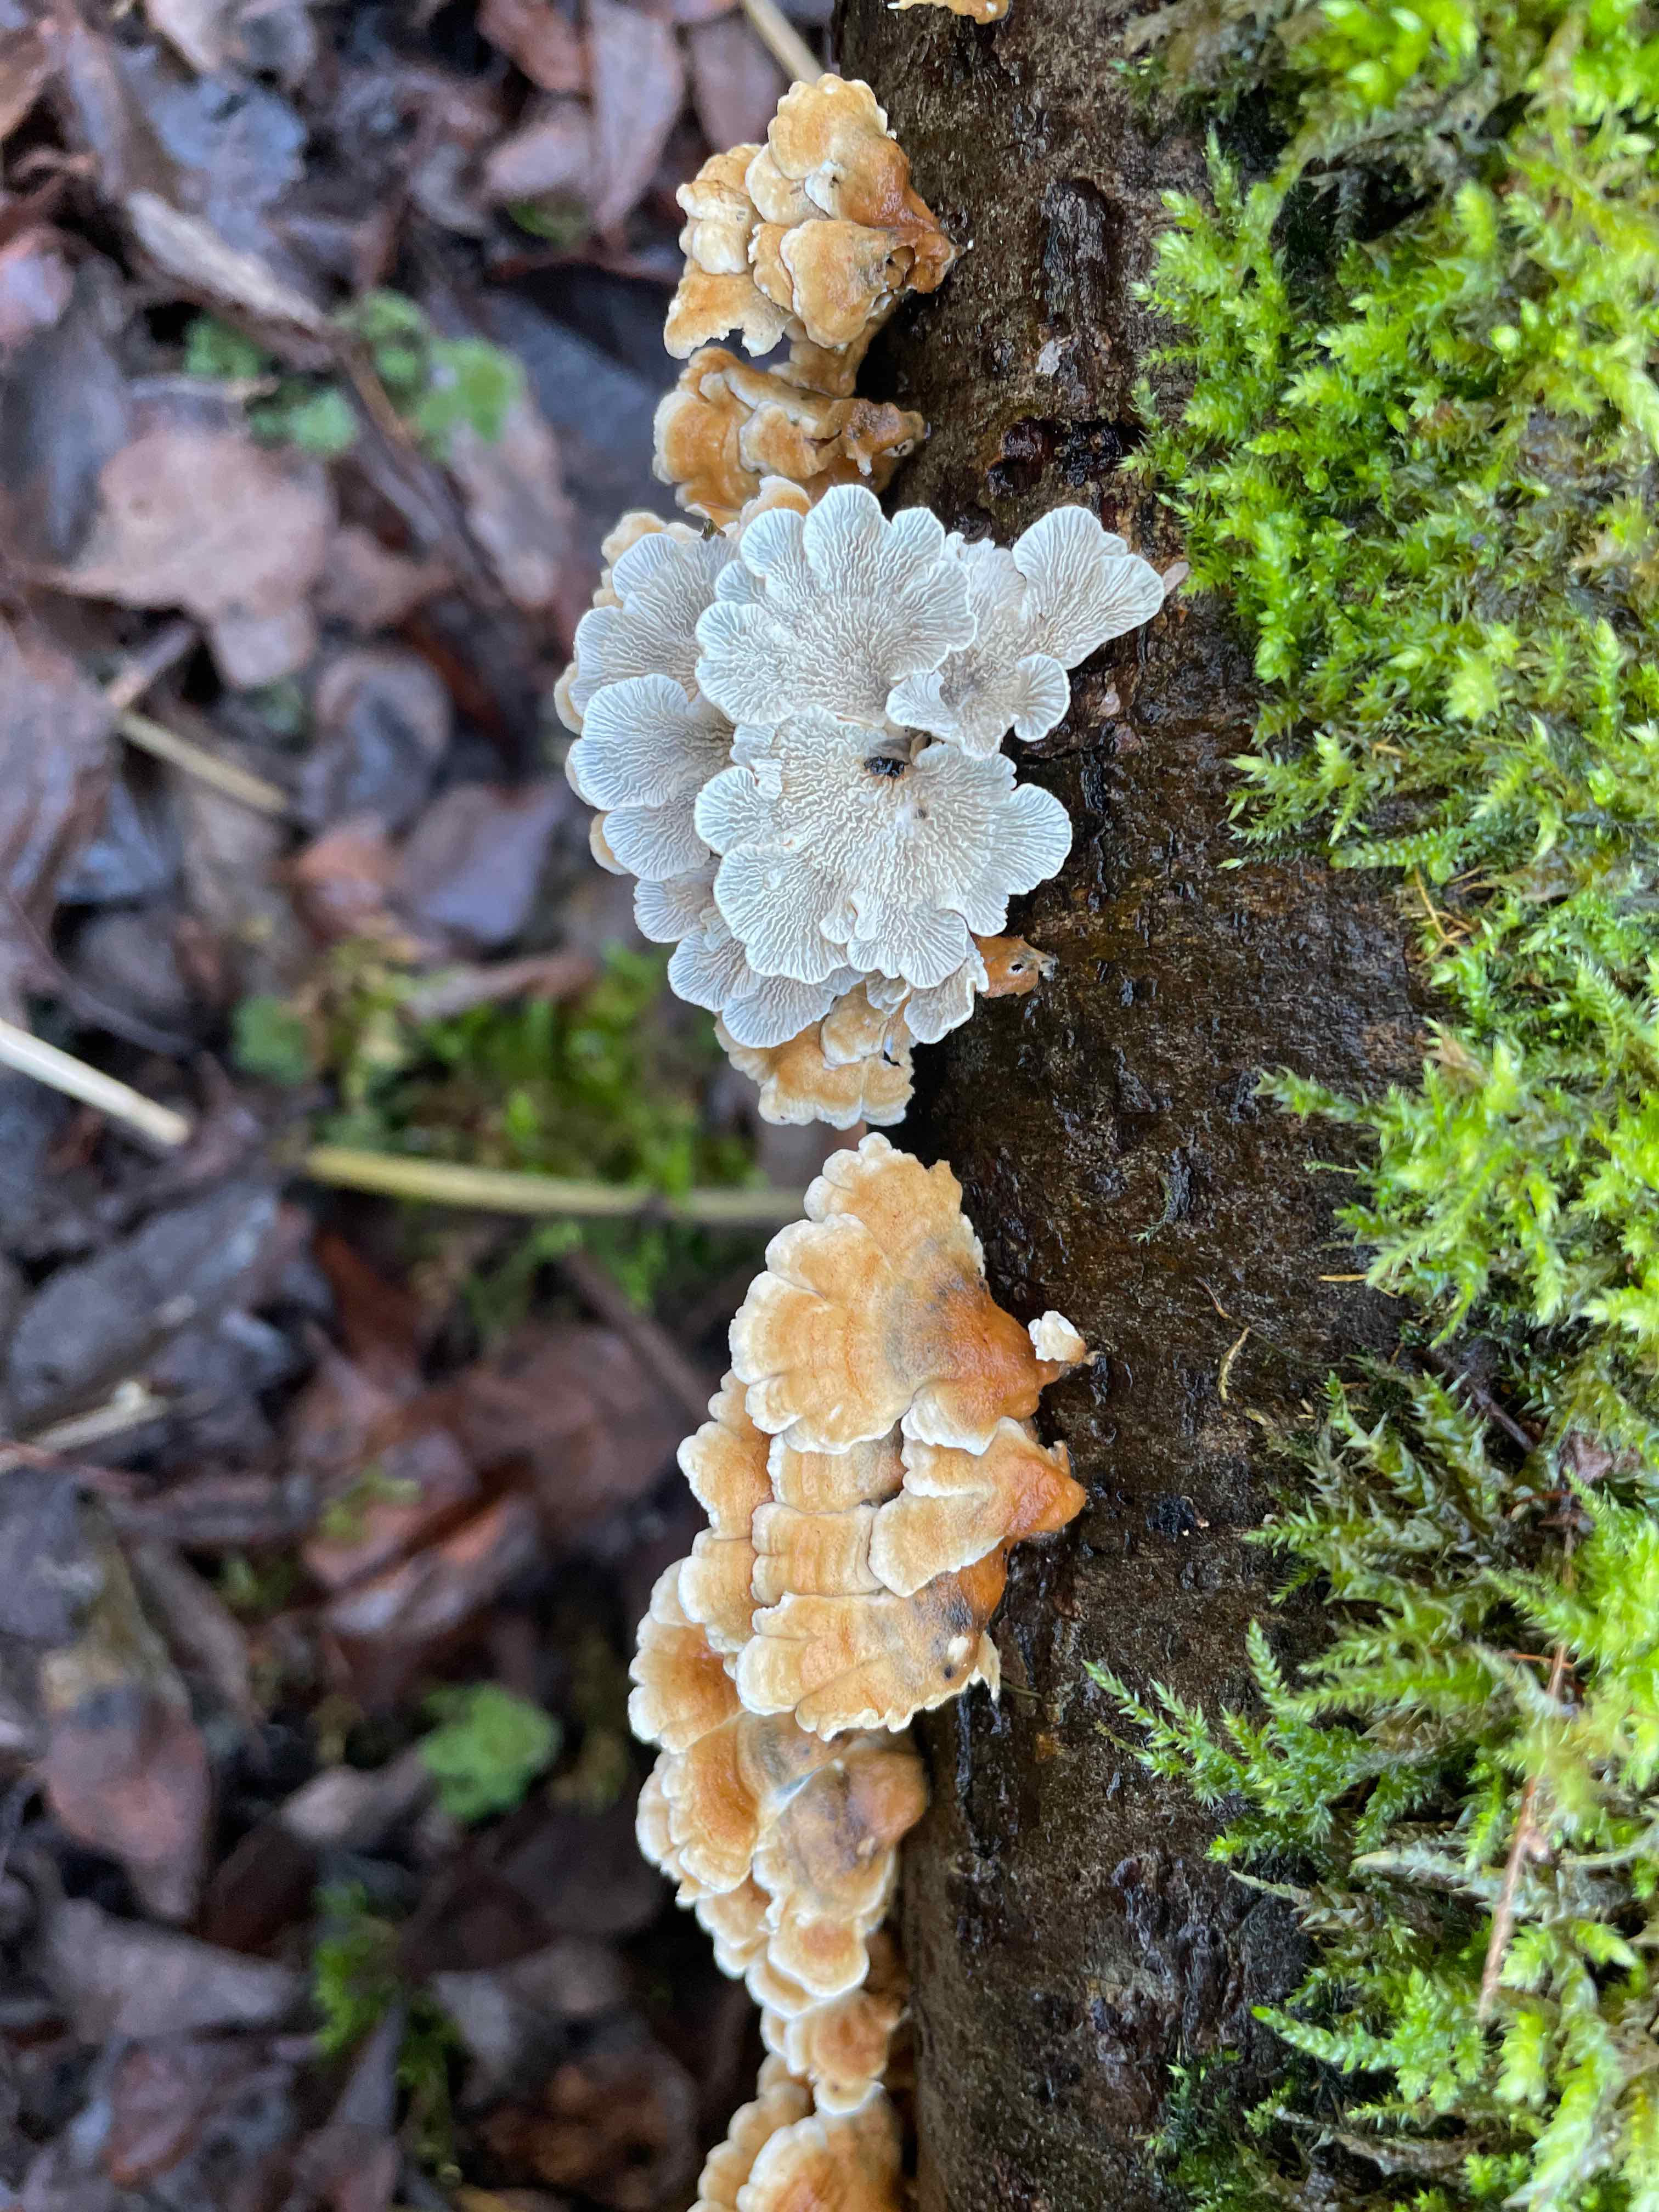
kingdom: Fungi
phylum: Basidiomycota
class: Agaricomycetes
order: Amylocorticiales
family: Amylocorticiaceae
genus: Plicaturopsis
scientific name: Plicaturopsis crispa
